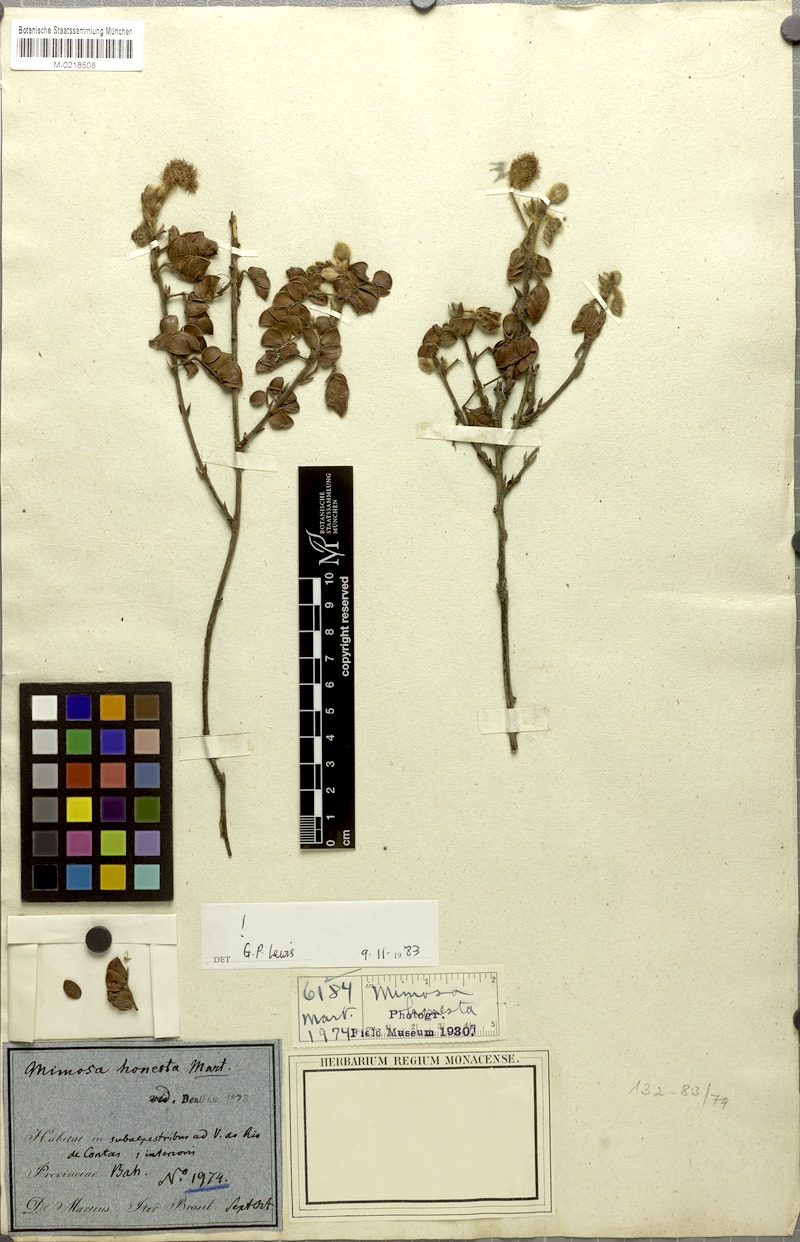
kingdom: Plantae
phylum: Tracheophyta
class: Magnoliopsida
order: Fabales
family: Fabaceae
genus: Mimosa
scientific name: Mimosa honesta
